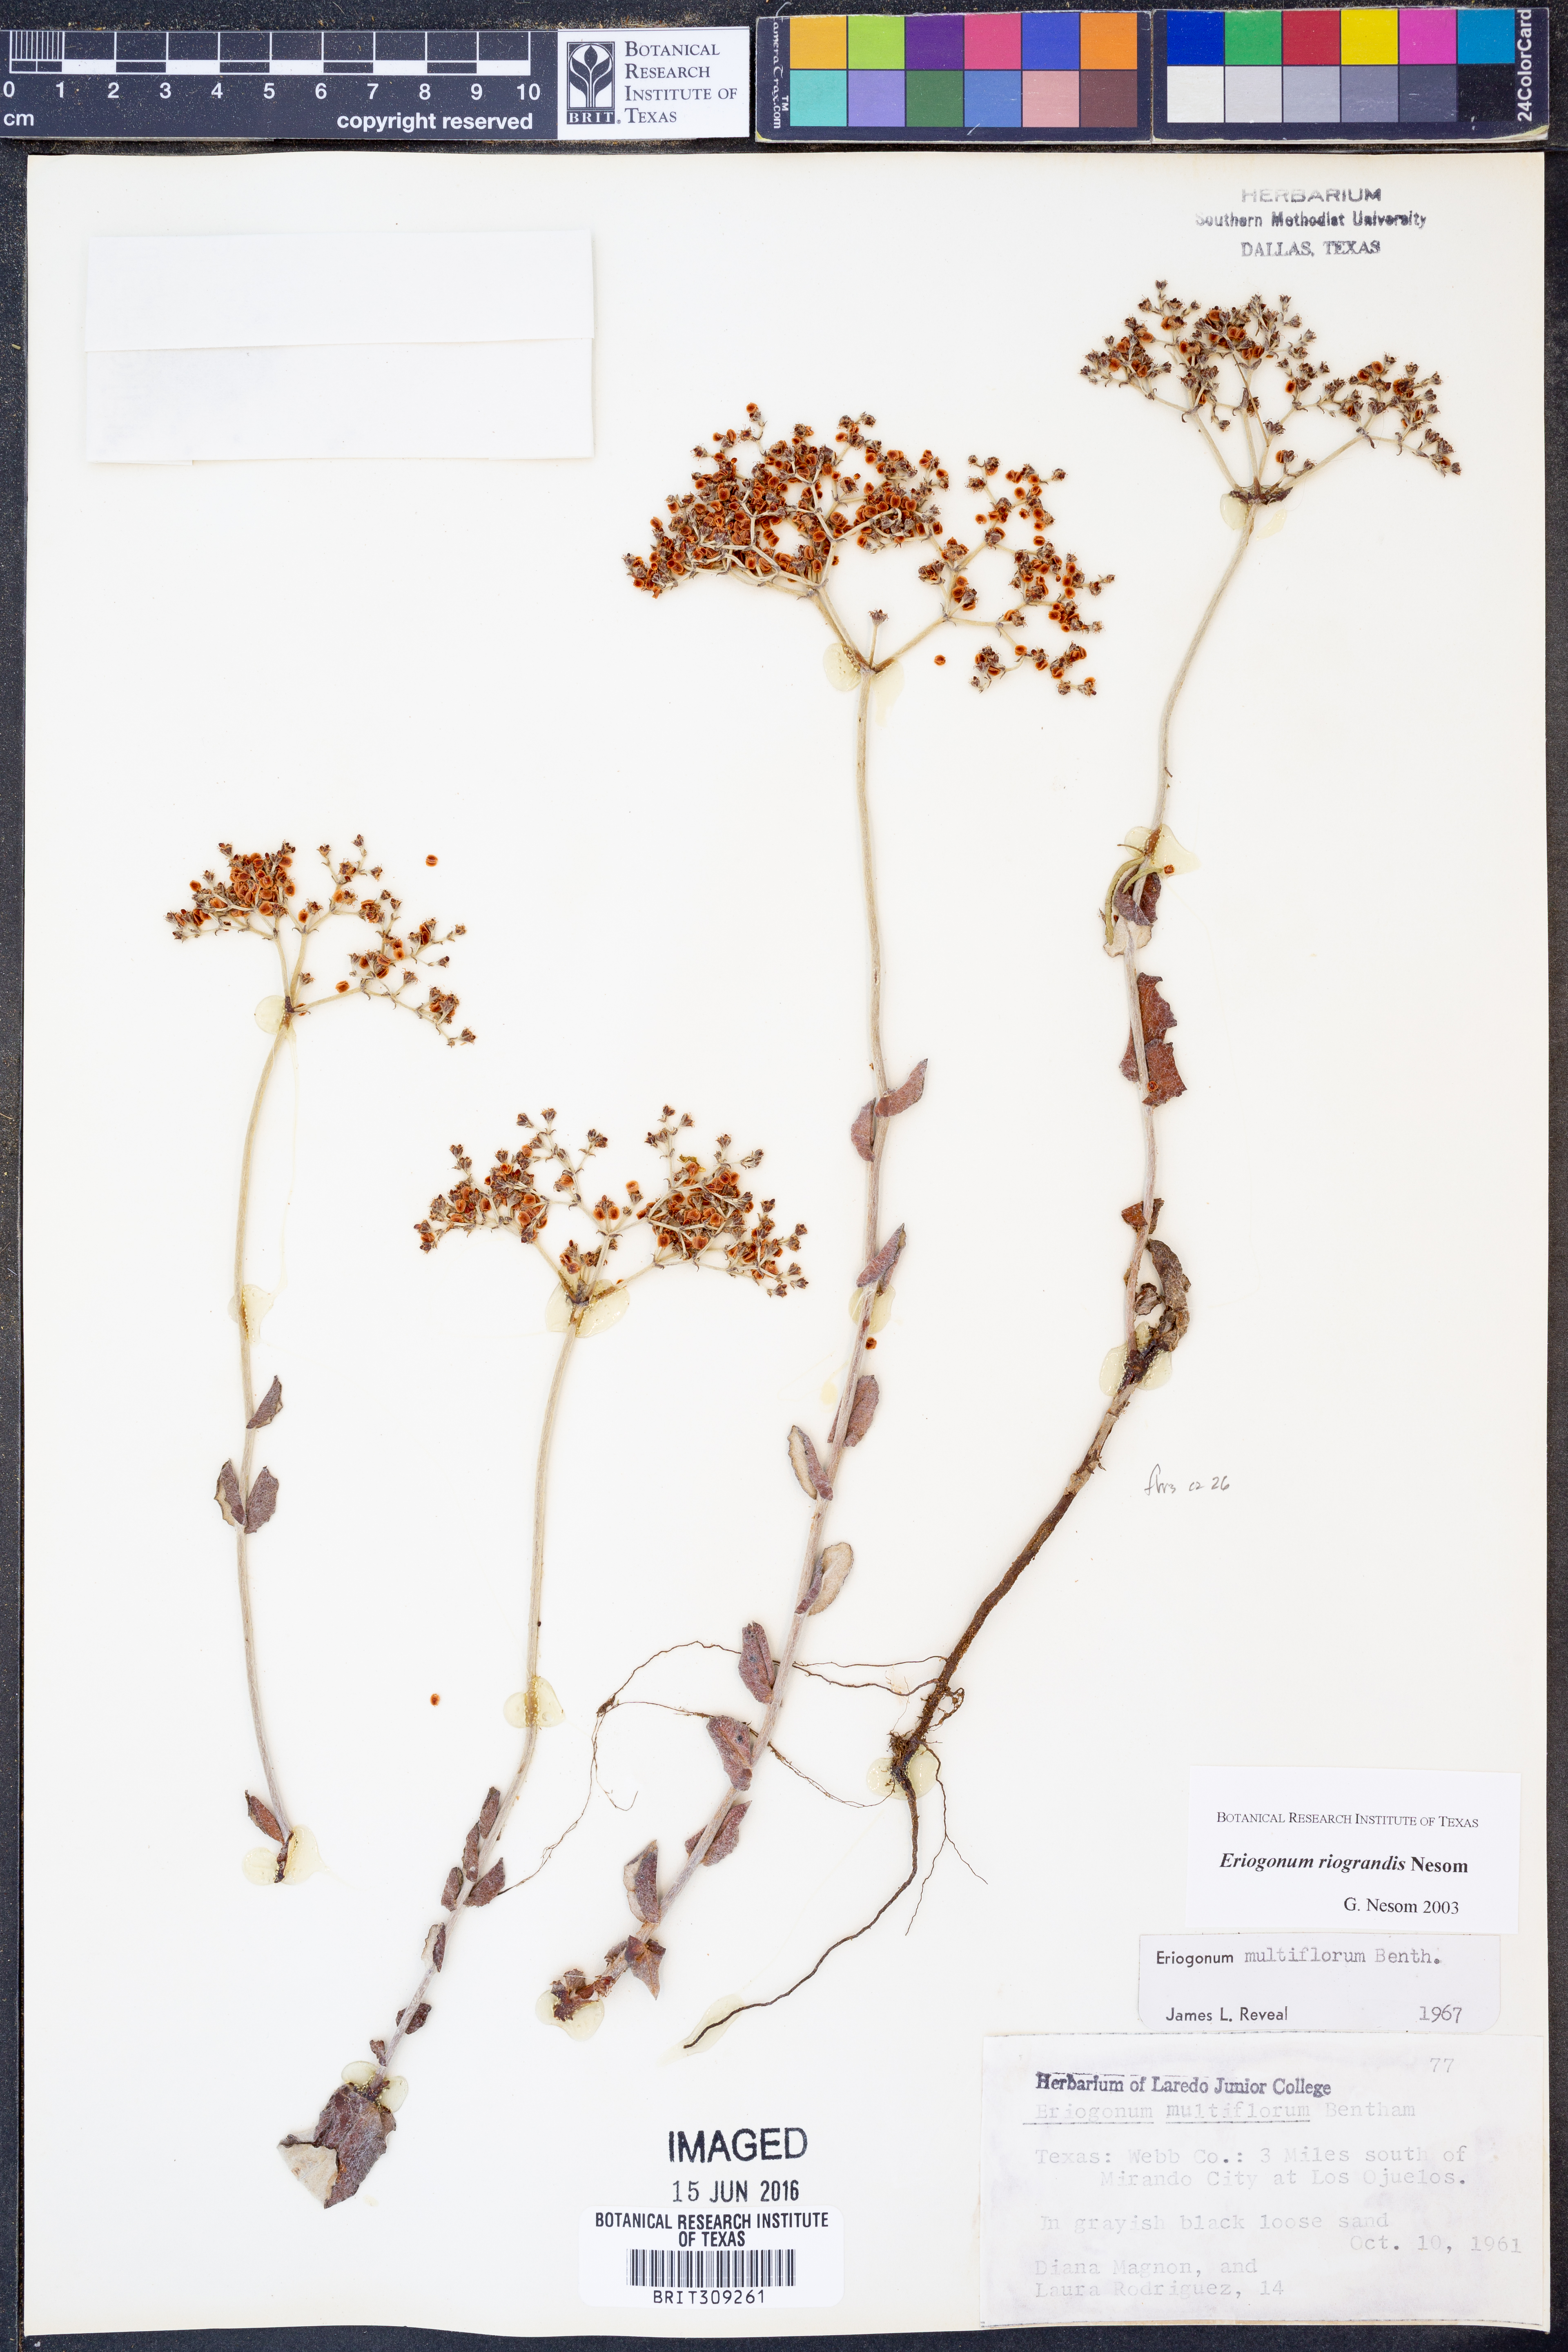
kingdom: Plantae
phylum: Tracheophyta
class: Magnoliopsida
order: Caryophyllales
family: Polygonaceae
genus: Eriogonum
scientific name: Eriogonum multiflorum
